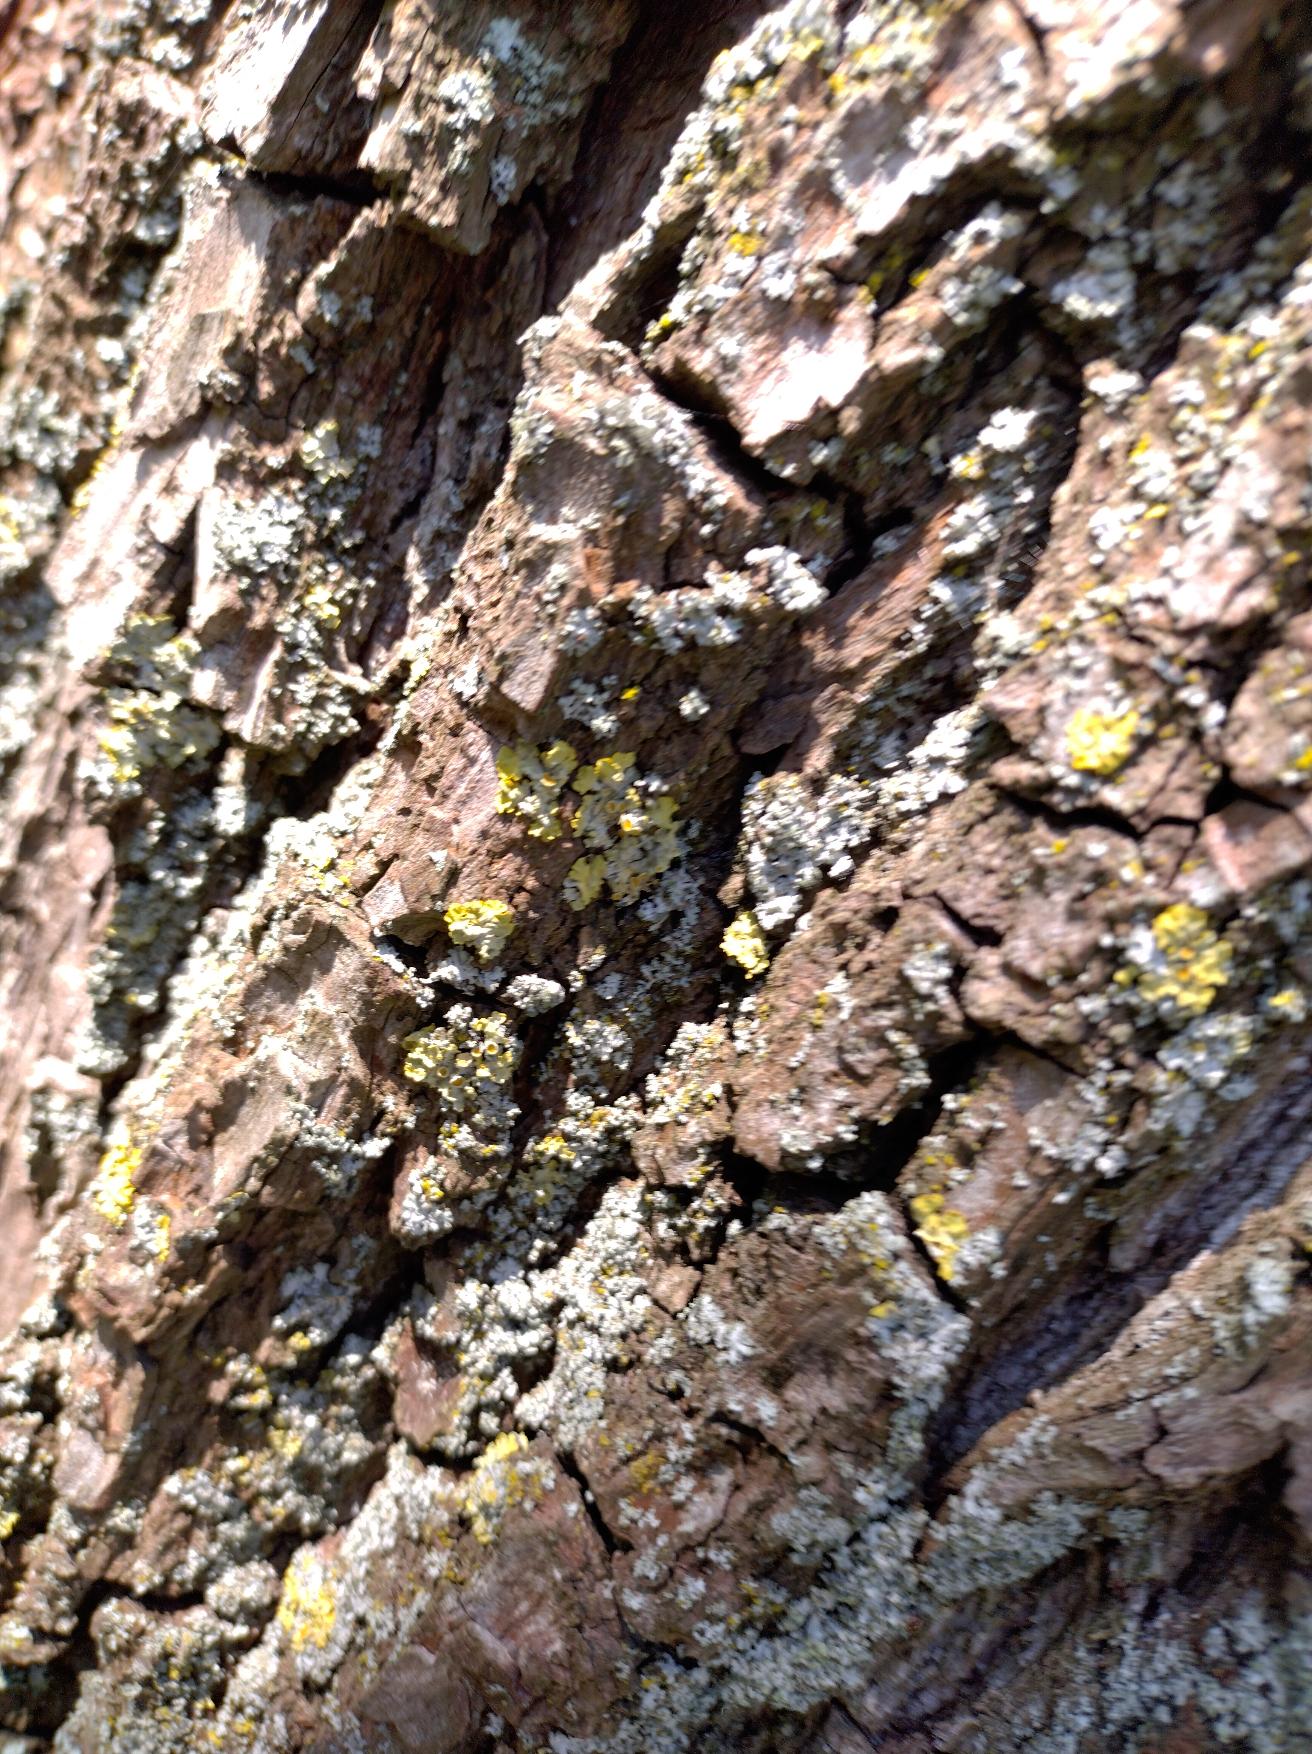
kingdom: Fungi
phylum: Ascomycota
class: Lecanoromycetes
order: Teloschistales
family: Teloschistaceae
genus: Xanthoria
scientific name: Xanthoria parietina
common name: Almindelig væggelav
